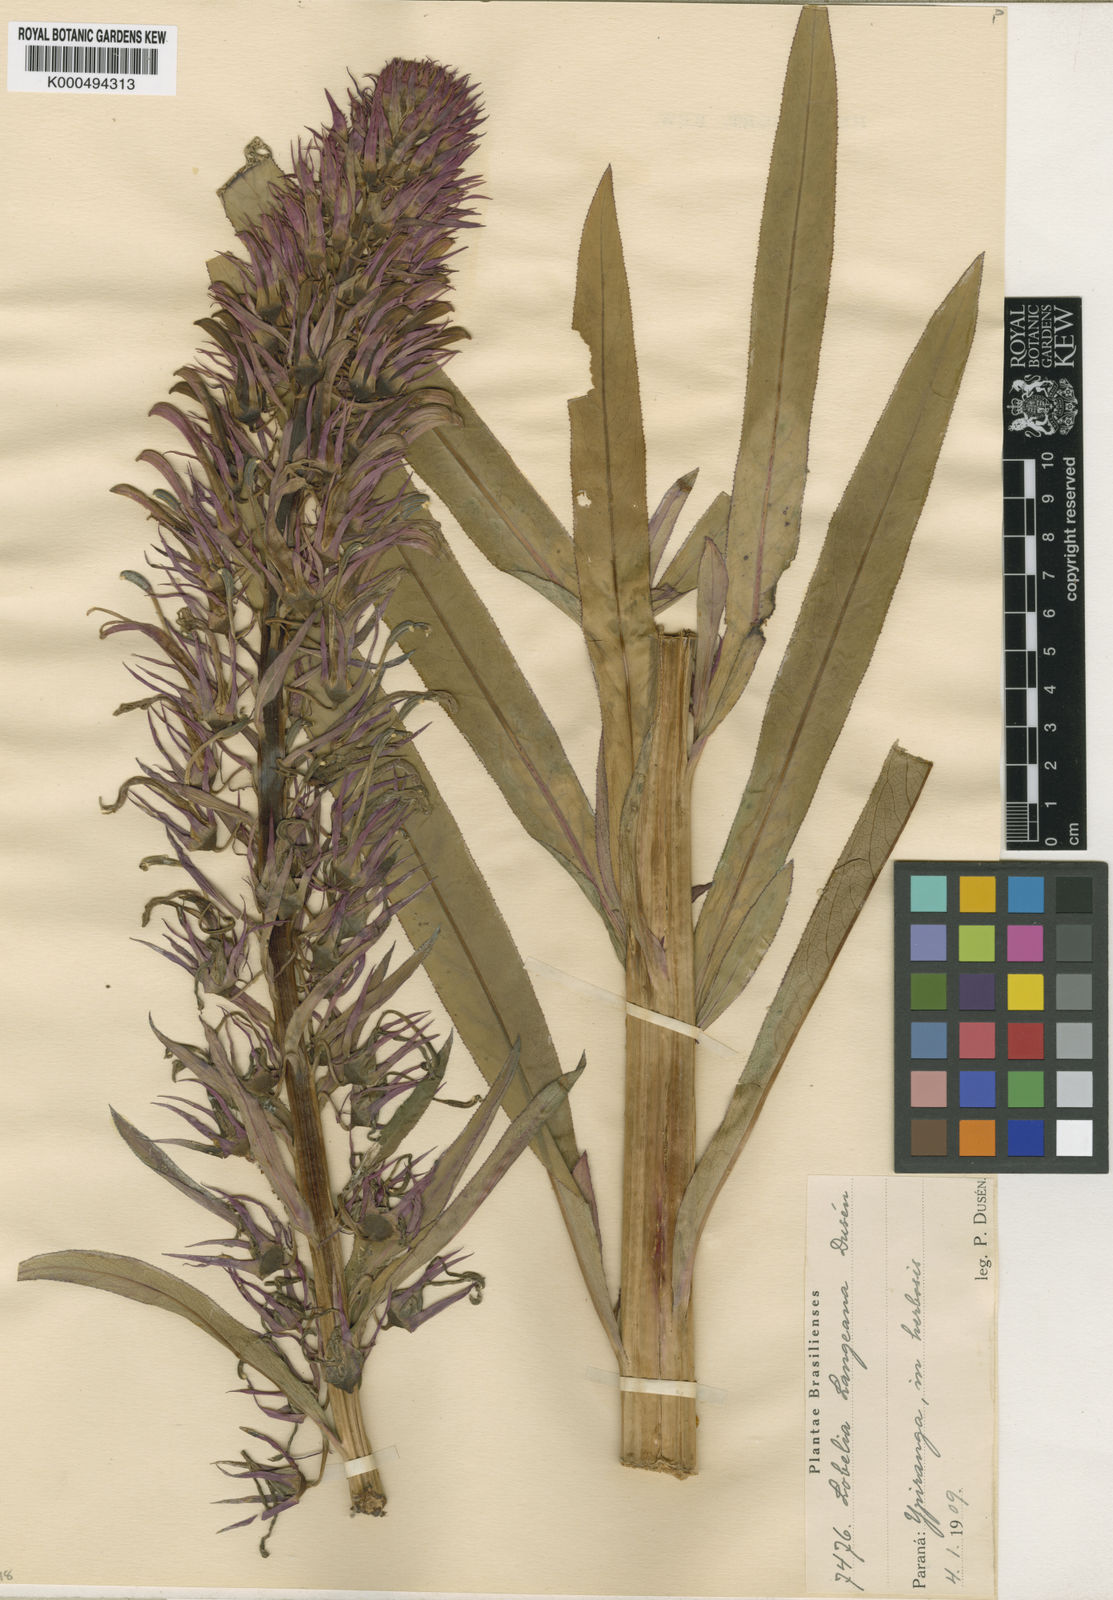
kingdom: Plantae
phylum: Tracheophyta
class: Magnoliopsida
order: Asterales
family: Campanulaceae
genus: Lobelia
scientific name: Lobelia
